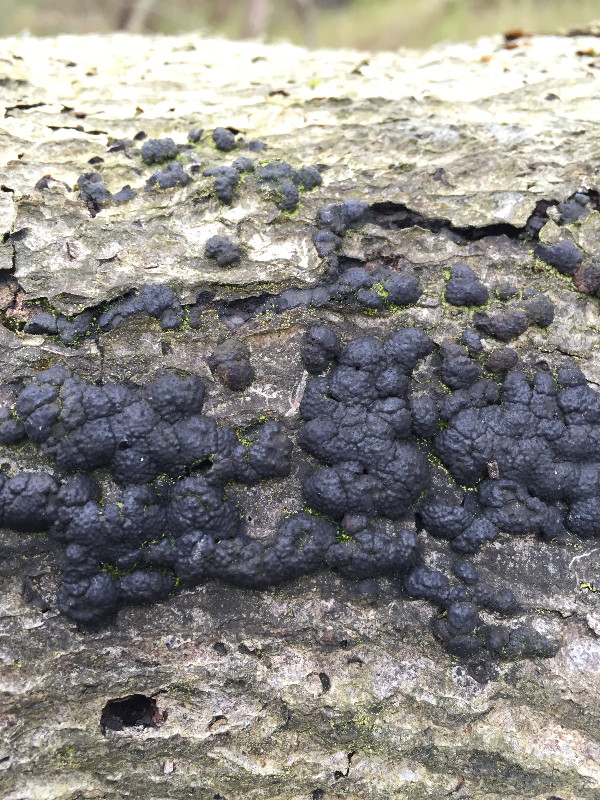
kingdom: Fungi
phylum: Ascomycota
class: Sordariomycetes
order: Xylariales
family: Hypoxylaceae
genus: Jackrogersella
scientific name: Jackrogersella cohaerens
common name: sammenflydende kulbær
